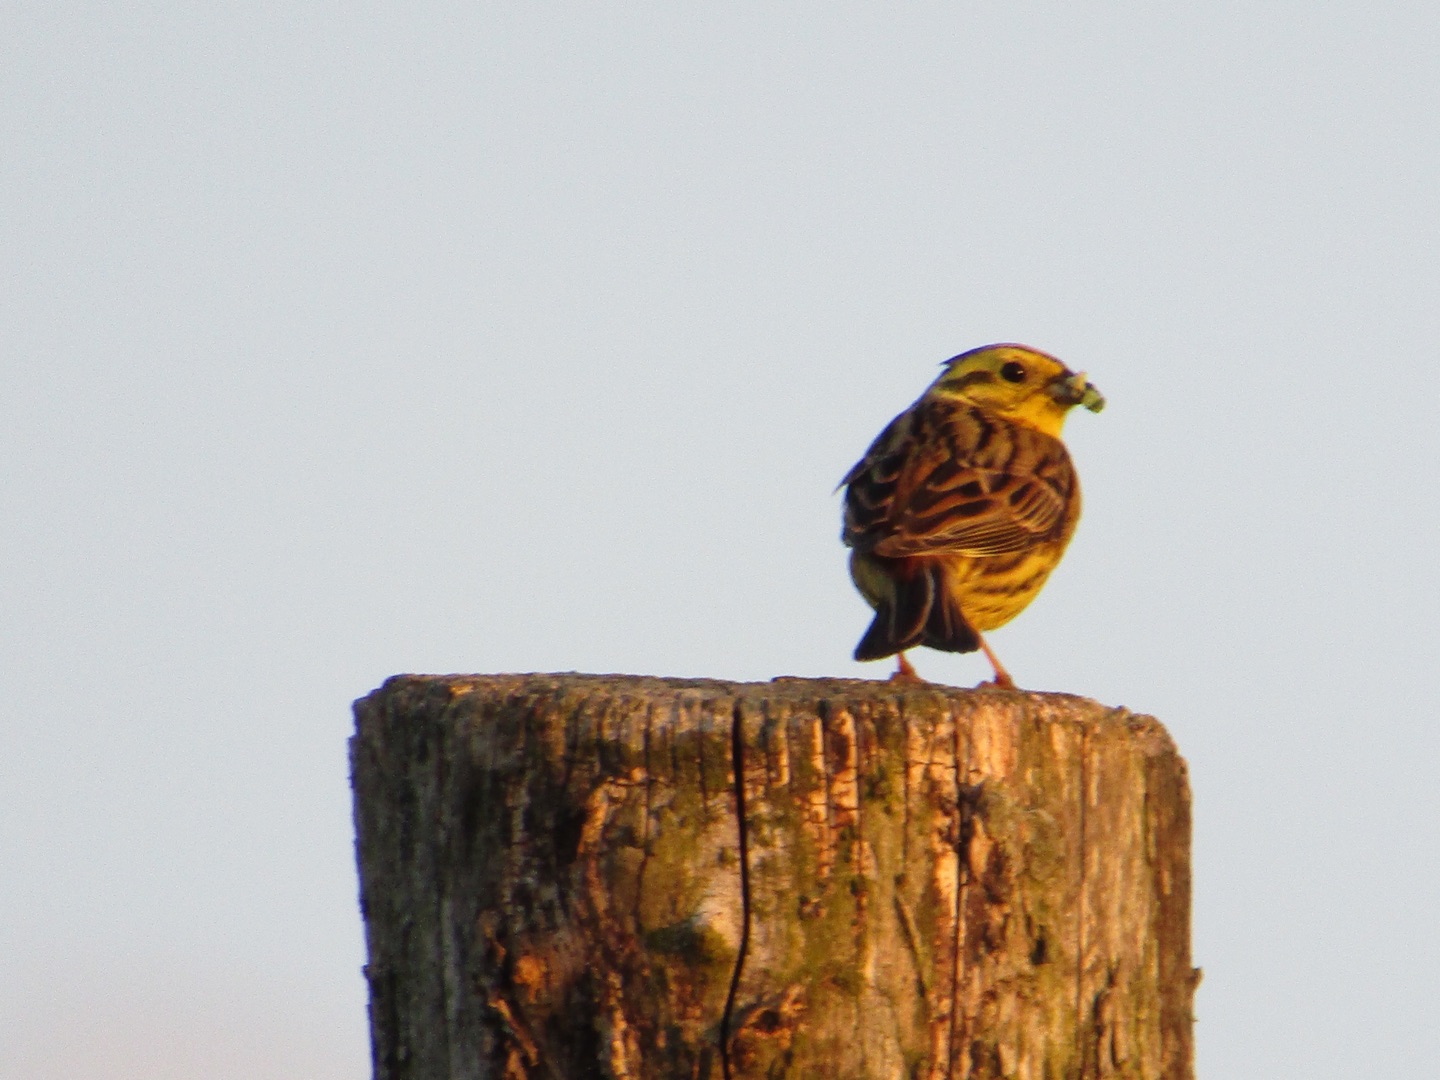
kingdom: Animalia
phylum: Chordata
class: Aves
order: Passeriformes
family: Emberizidae
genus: Emberiza
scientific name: Emberiza citrinella
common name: Gulspurv
